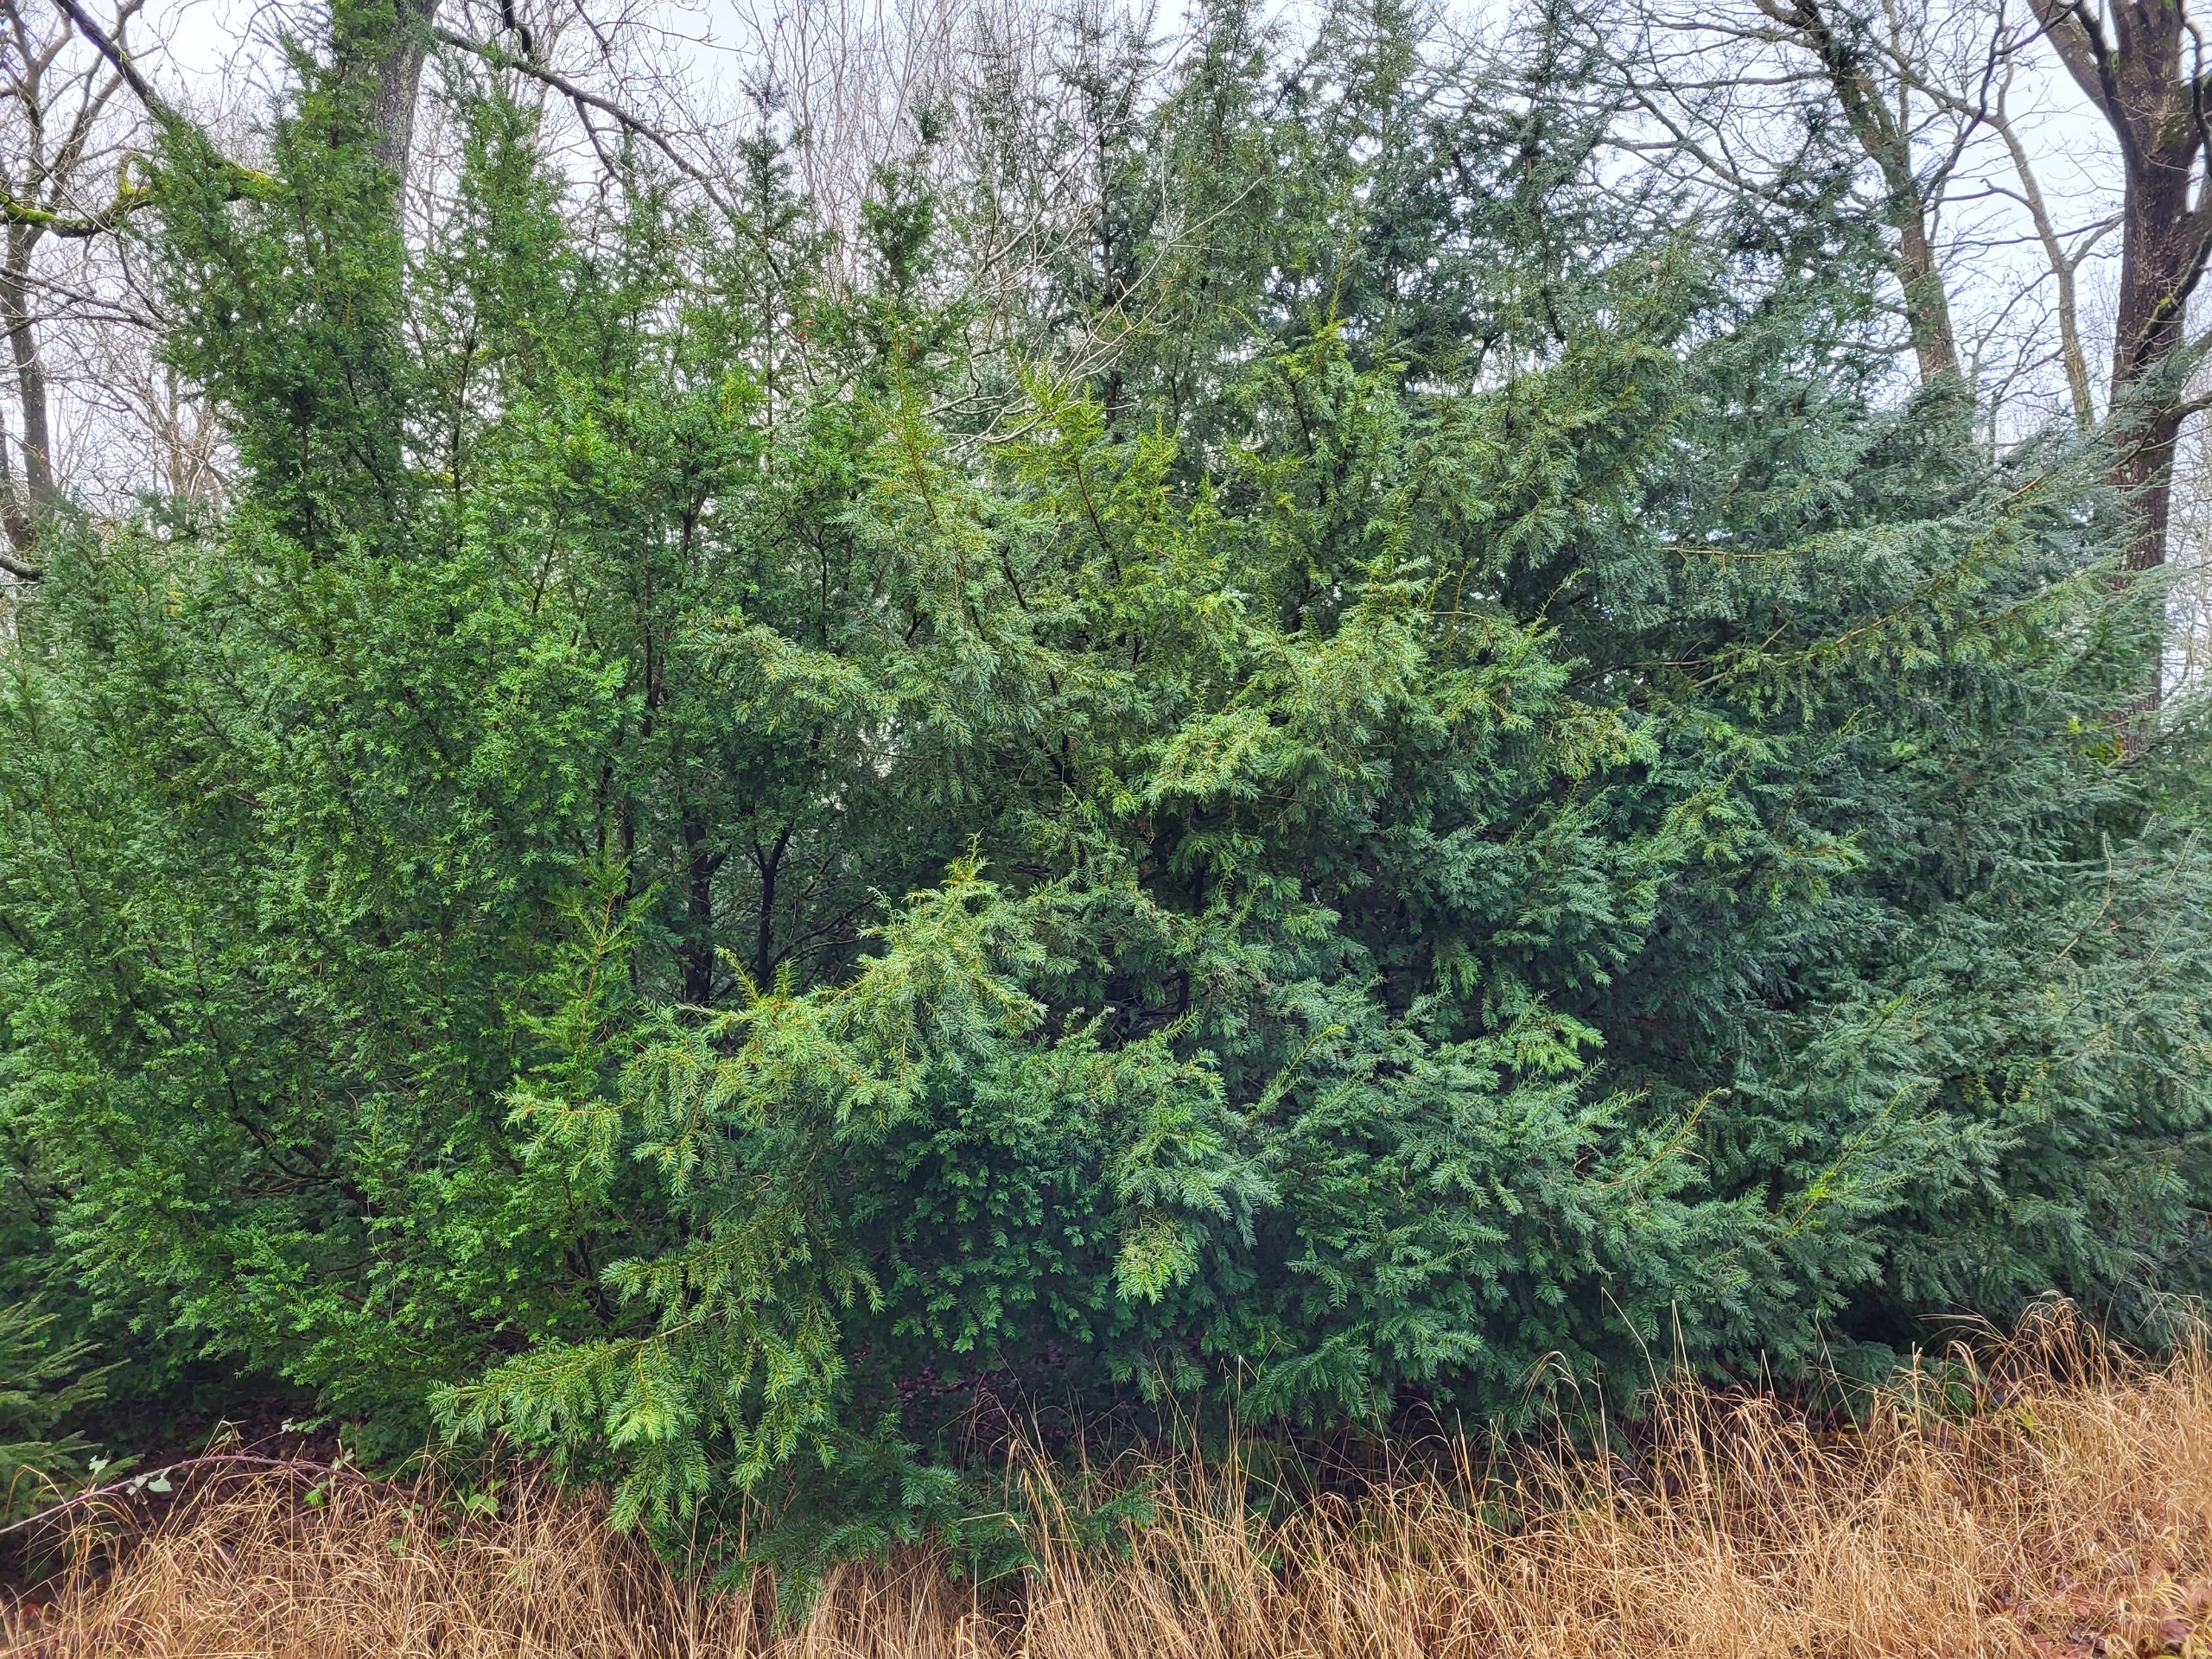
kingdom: Plantae
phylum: Tracheophyta
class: Pinopsida
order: Pinales
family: Taxaceae
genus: Taxus
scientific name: Taxus baccata
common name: Almindelig taks
